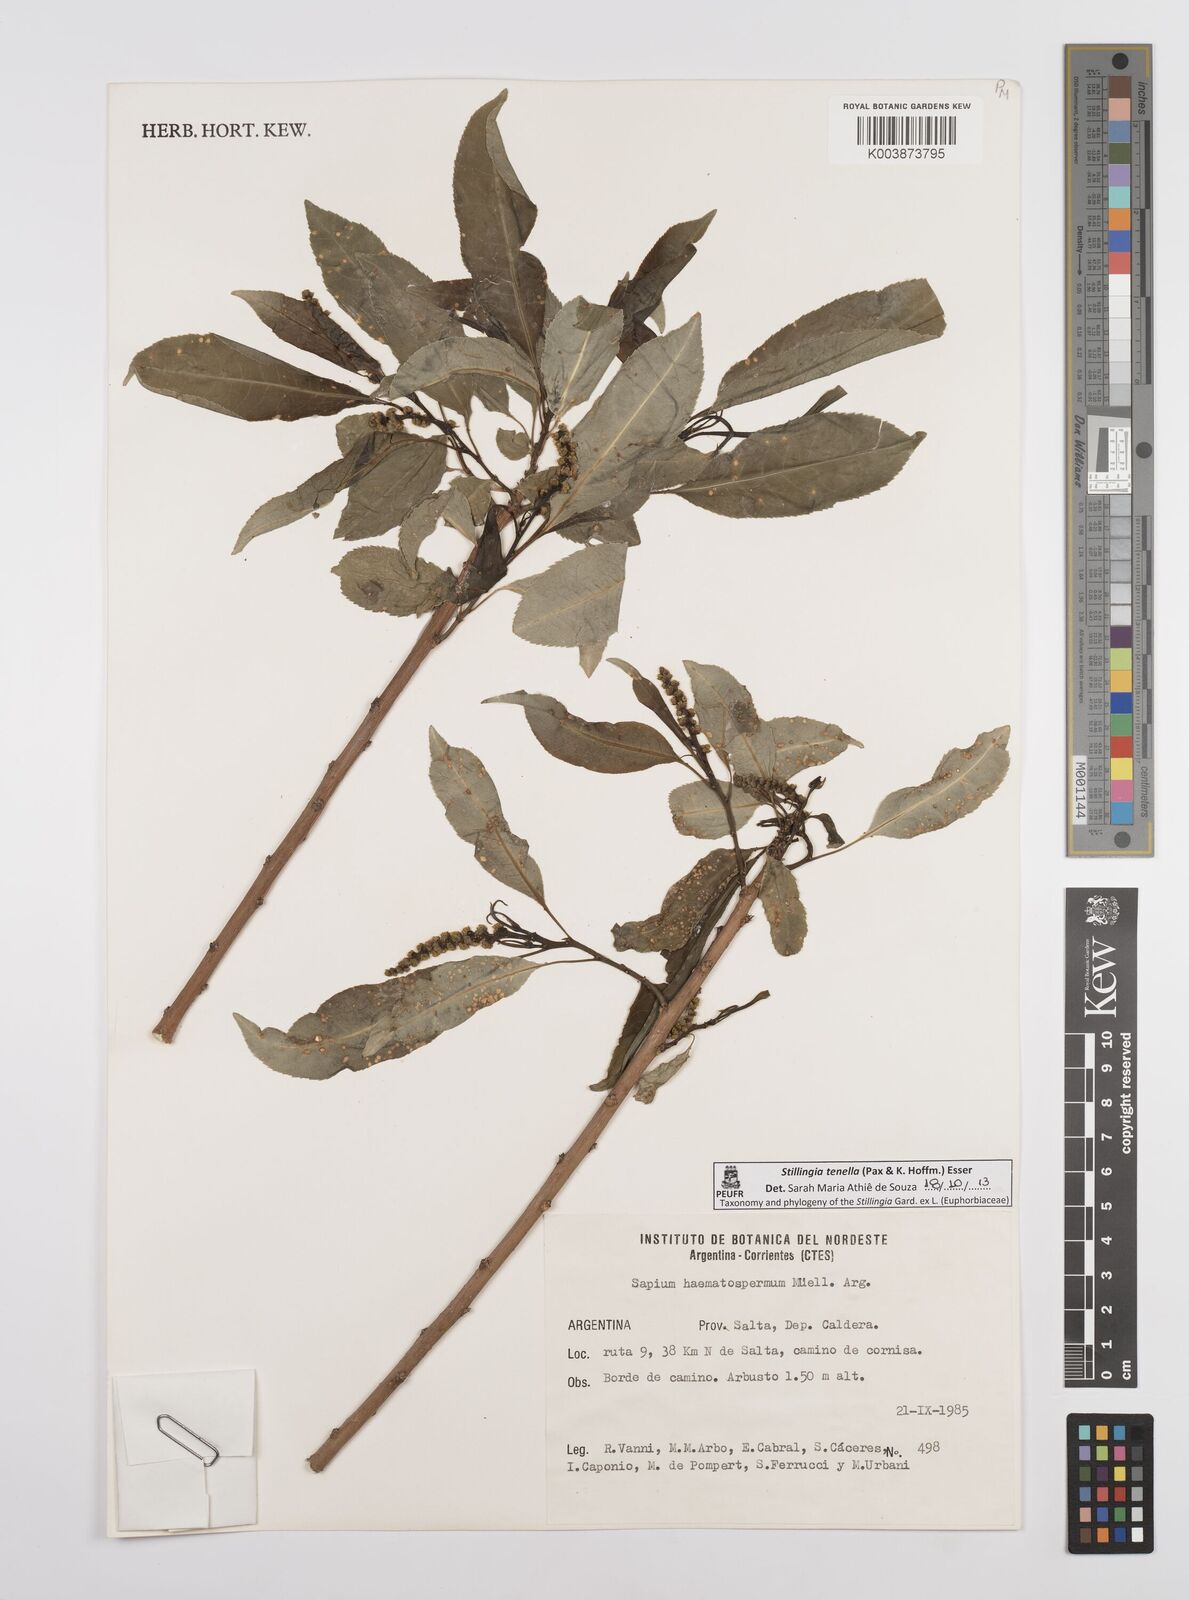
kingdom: Plantae
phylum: Tracheophyta
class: Magnoliopsida
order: Malpighiales
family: Euphorbiaceae
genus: Stillingia
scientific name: Stillingia tenella
